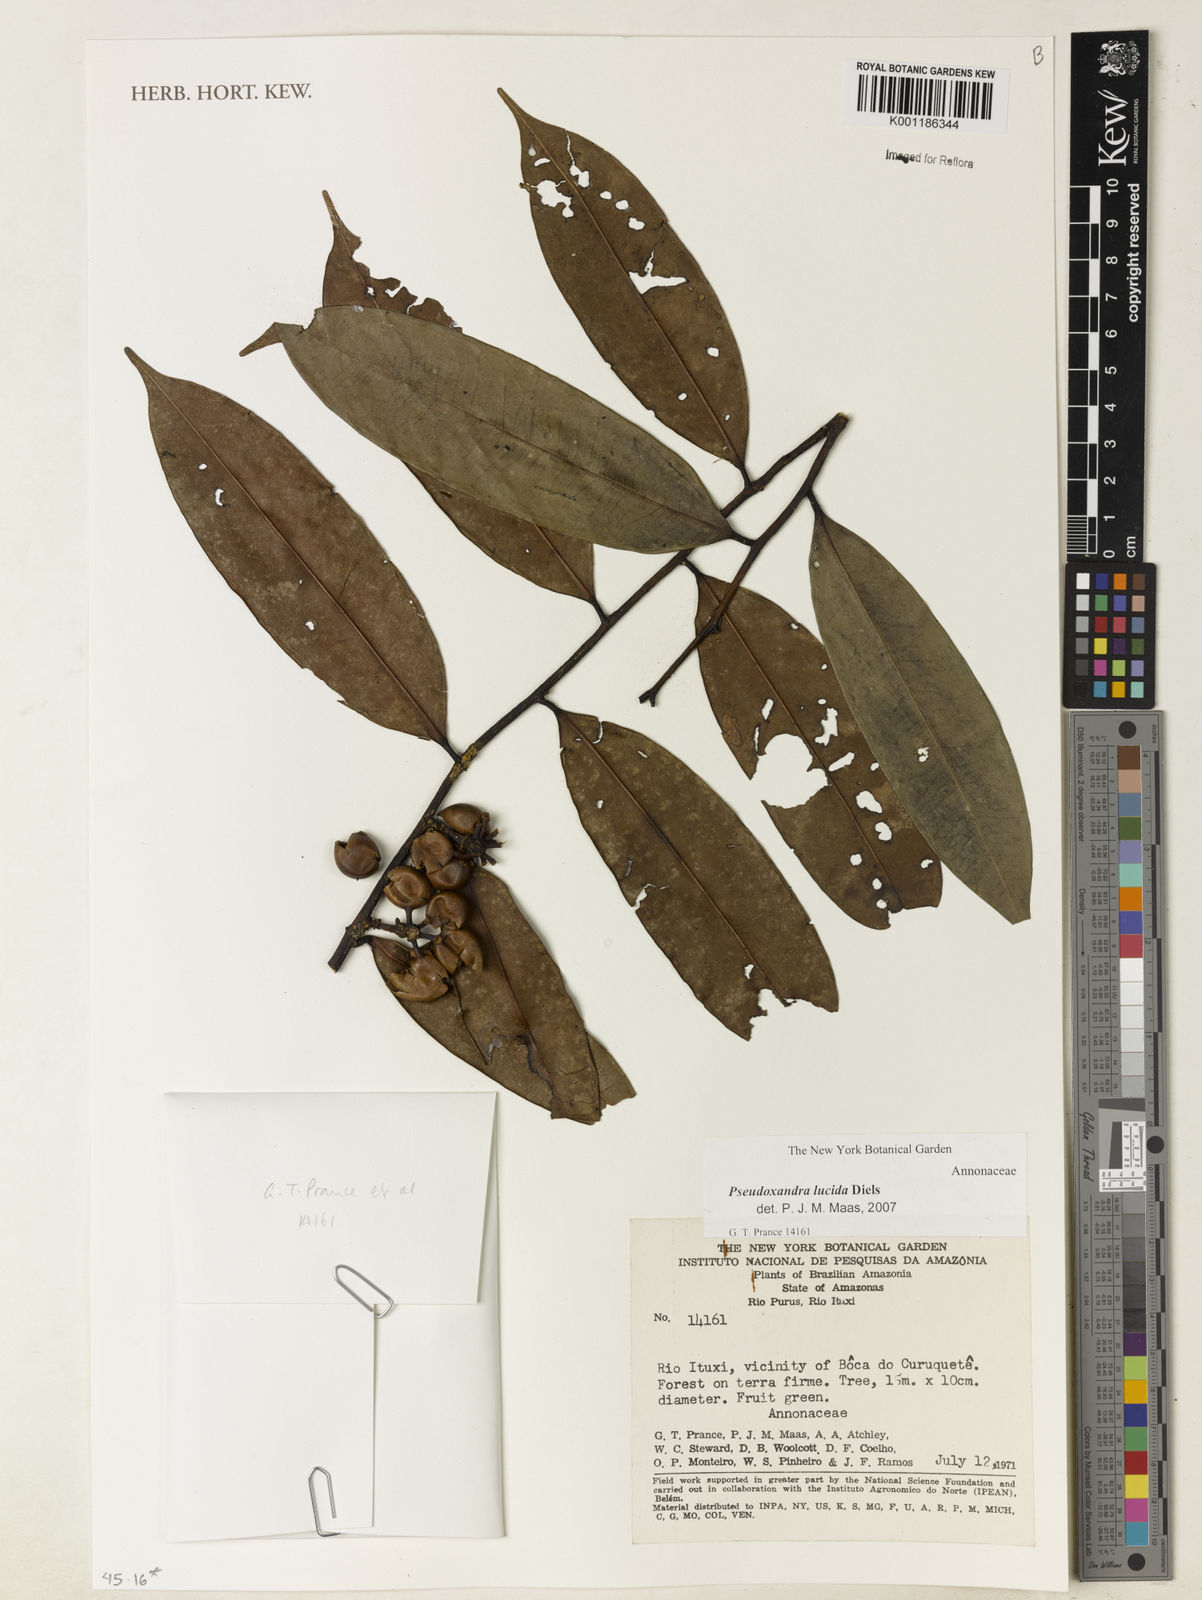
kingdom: Plantae
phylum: Tracheophyta
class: Magnoliopsida
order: Magnoliales
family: Annonaceae
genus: Pseudoxandra
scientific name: Pseudoxandra lucida
